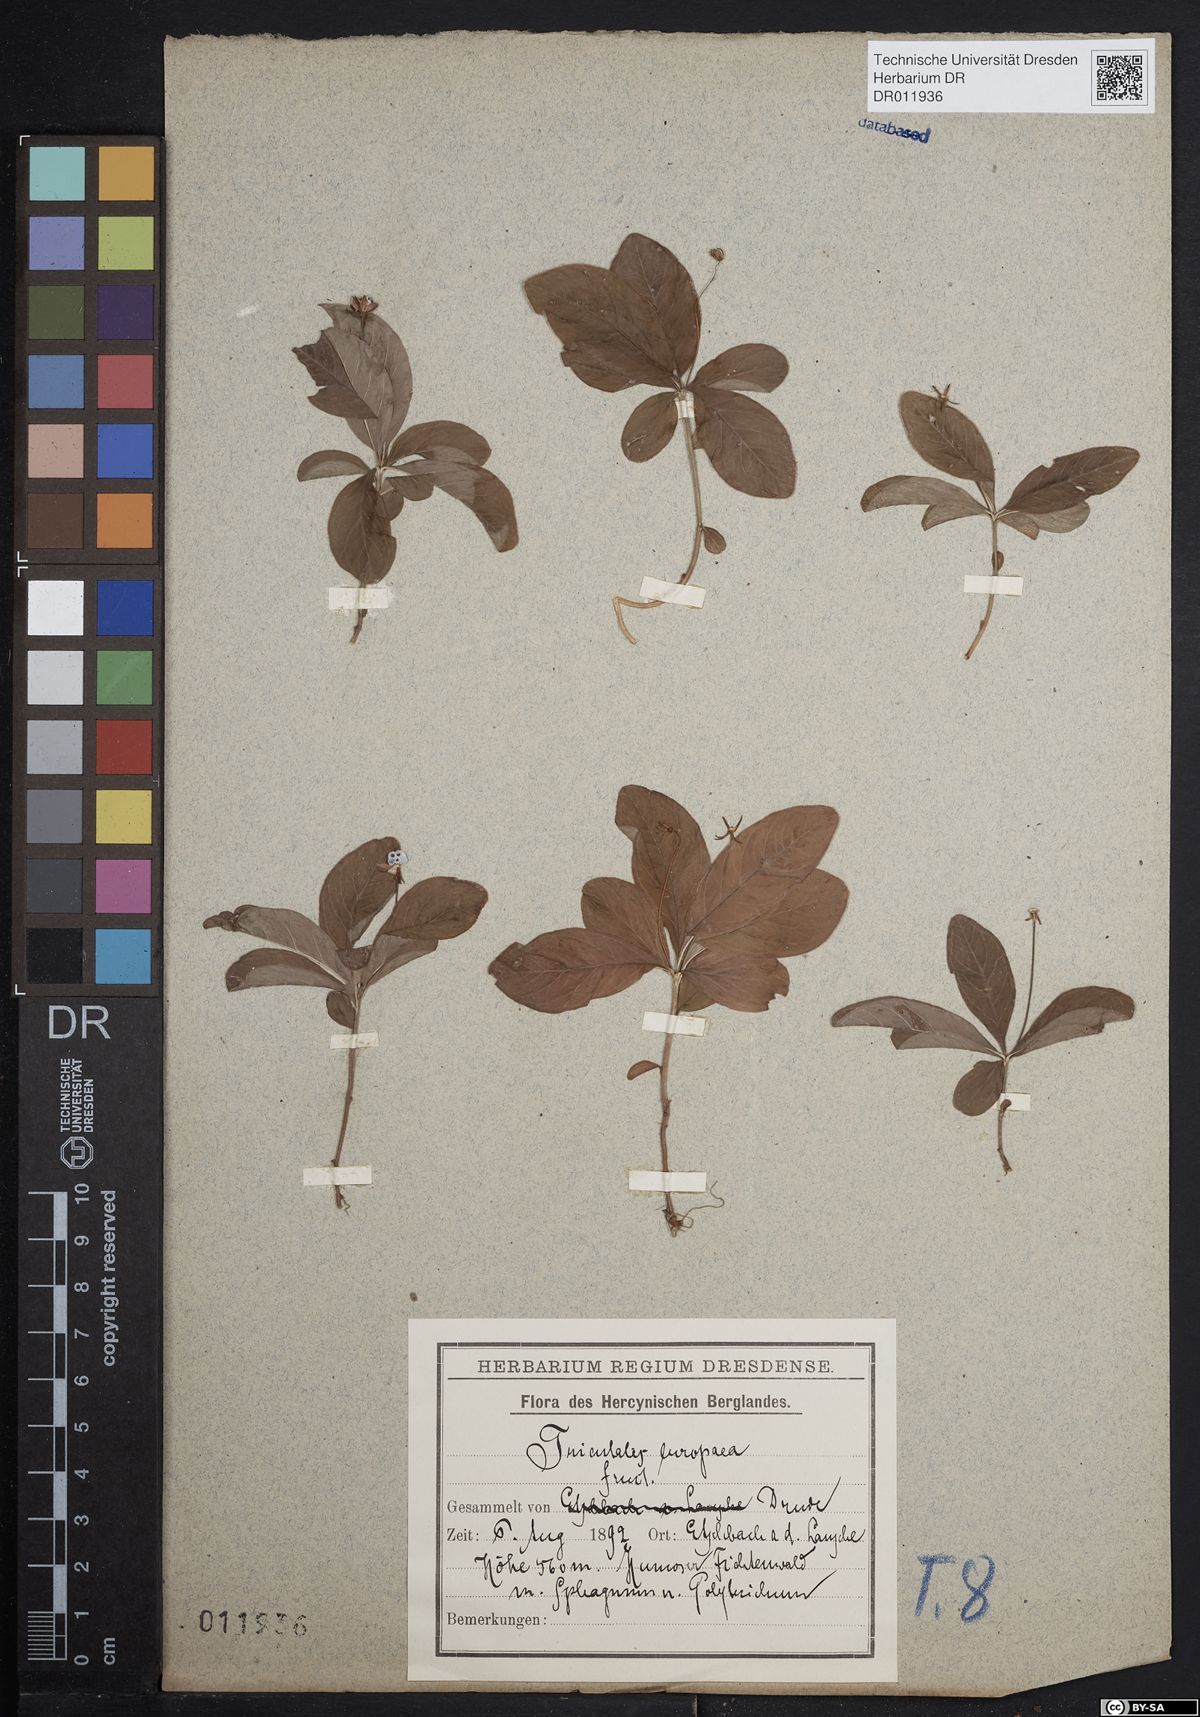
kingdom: Plantae
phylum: Tracheophyta
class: Magnoliopsida
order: Ericales
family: Primulaceae
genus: Lysimachia
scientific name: Lysimachia europaea
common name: Arctic starflower
